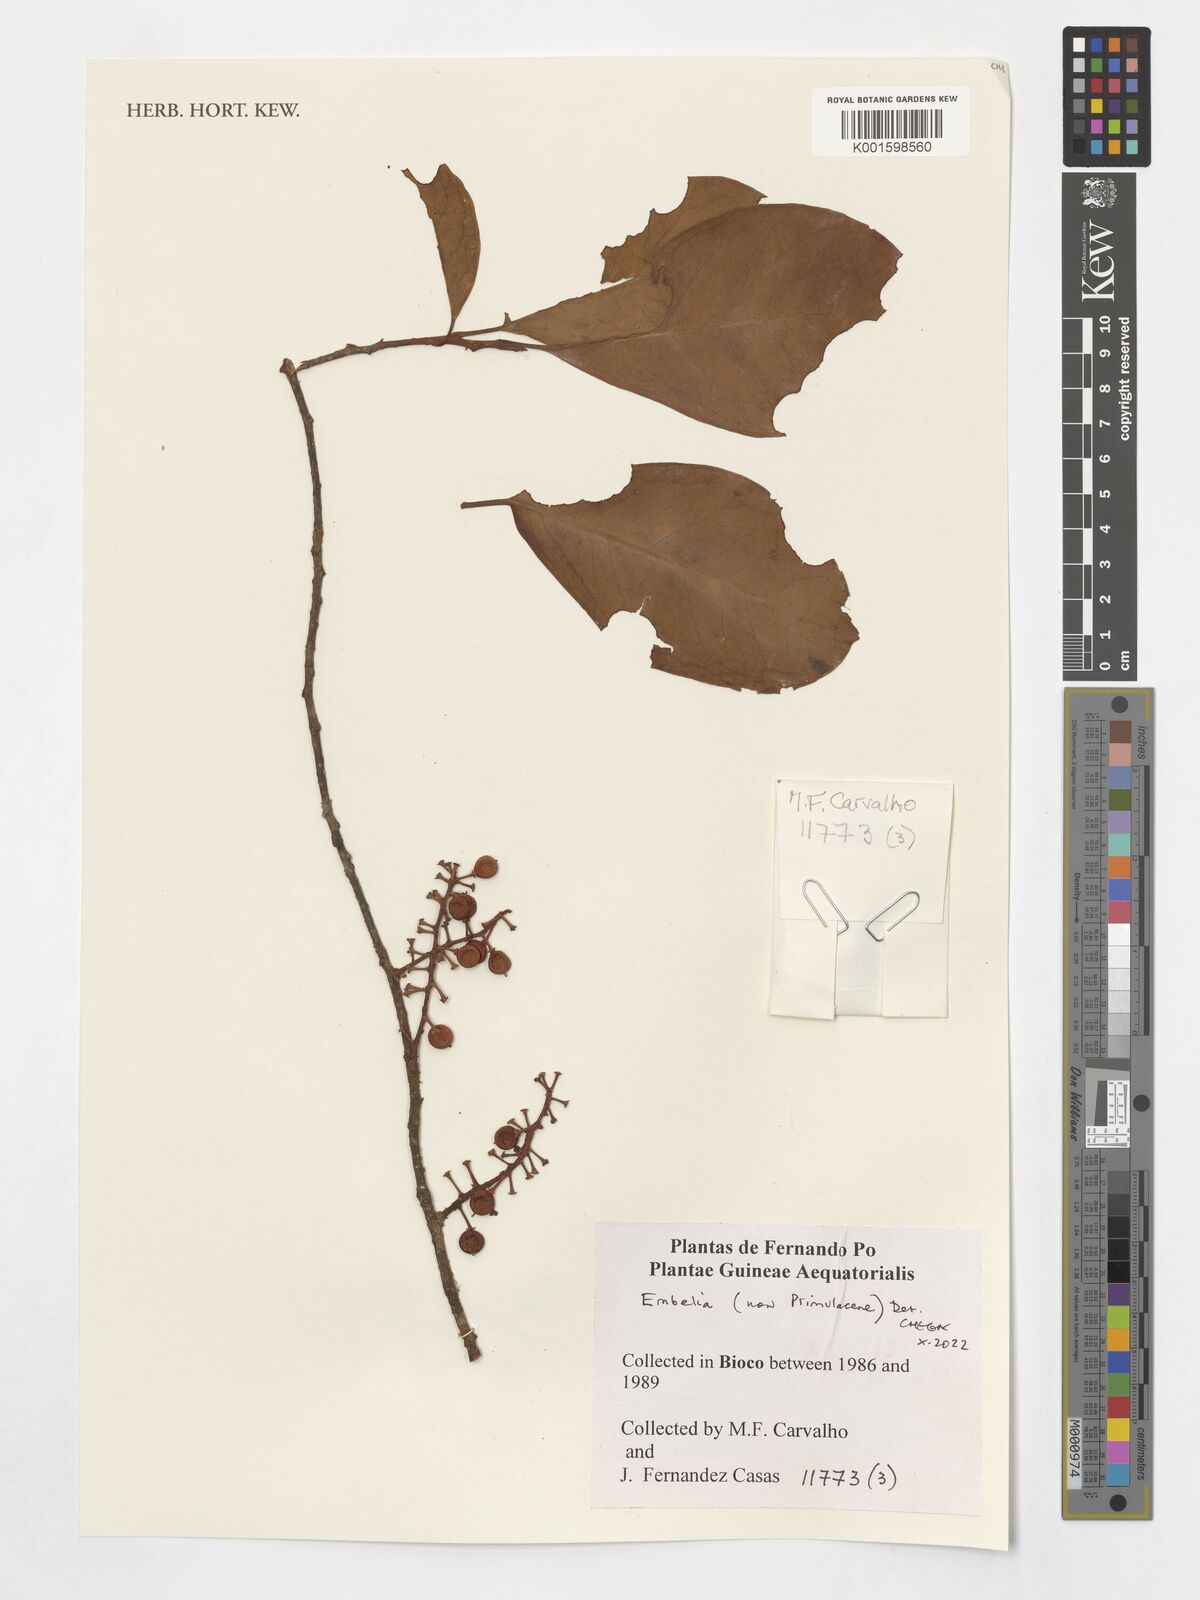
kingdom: Plantae
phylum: Tracheophyta
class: Magnoliopsida
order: Ericales
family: Primulaceae
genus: Embelia
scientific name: Embelia
